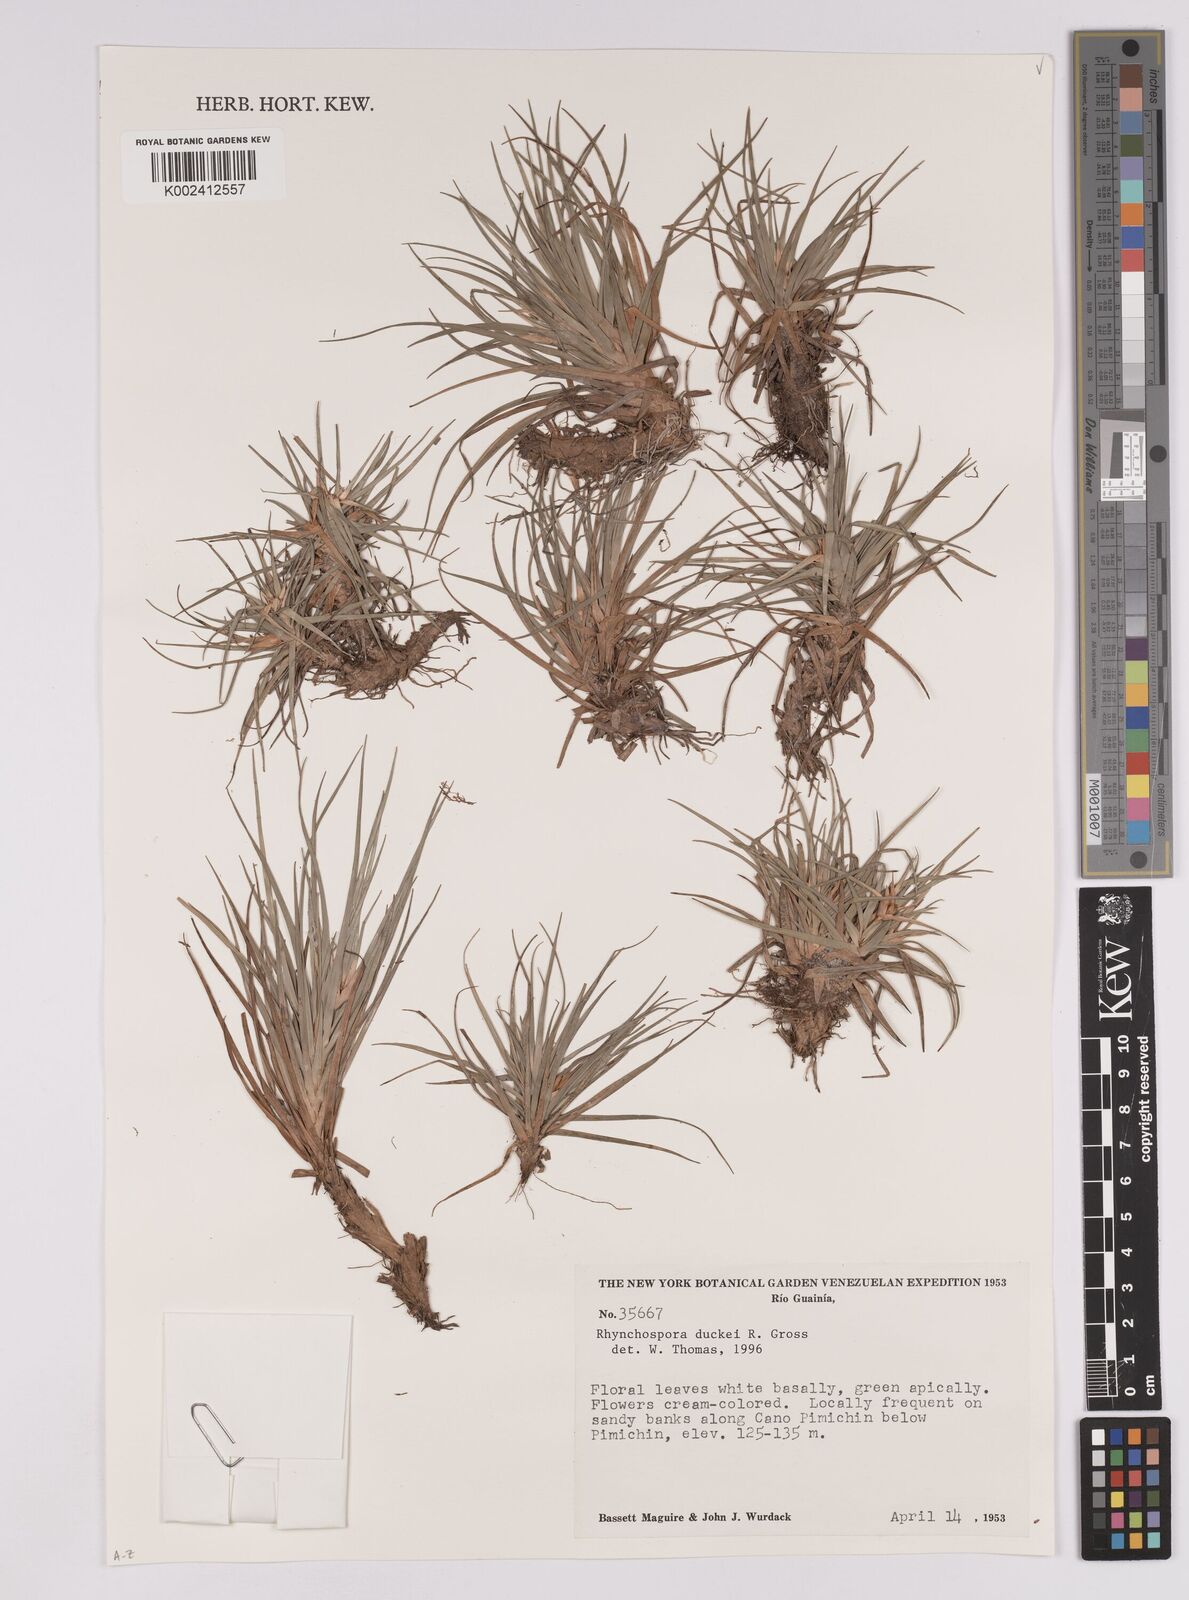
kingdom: Plantae
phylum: Tracheophyta
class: Liliopsida
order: Poales
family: Cyperaceae
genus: Rhynchospora
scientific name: Rhynchospora duckei
